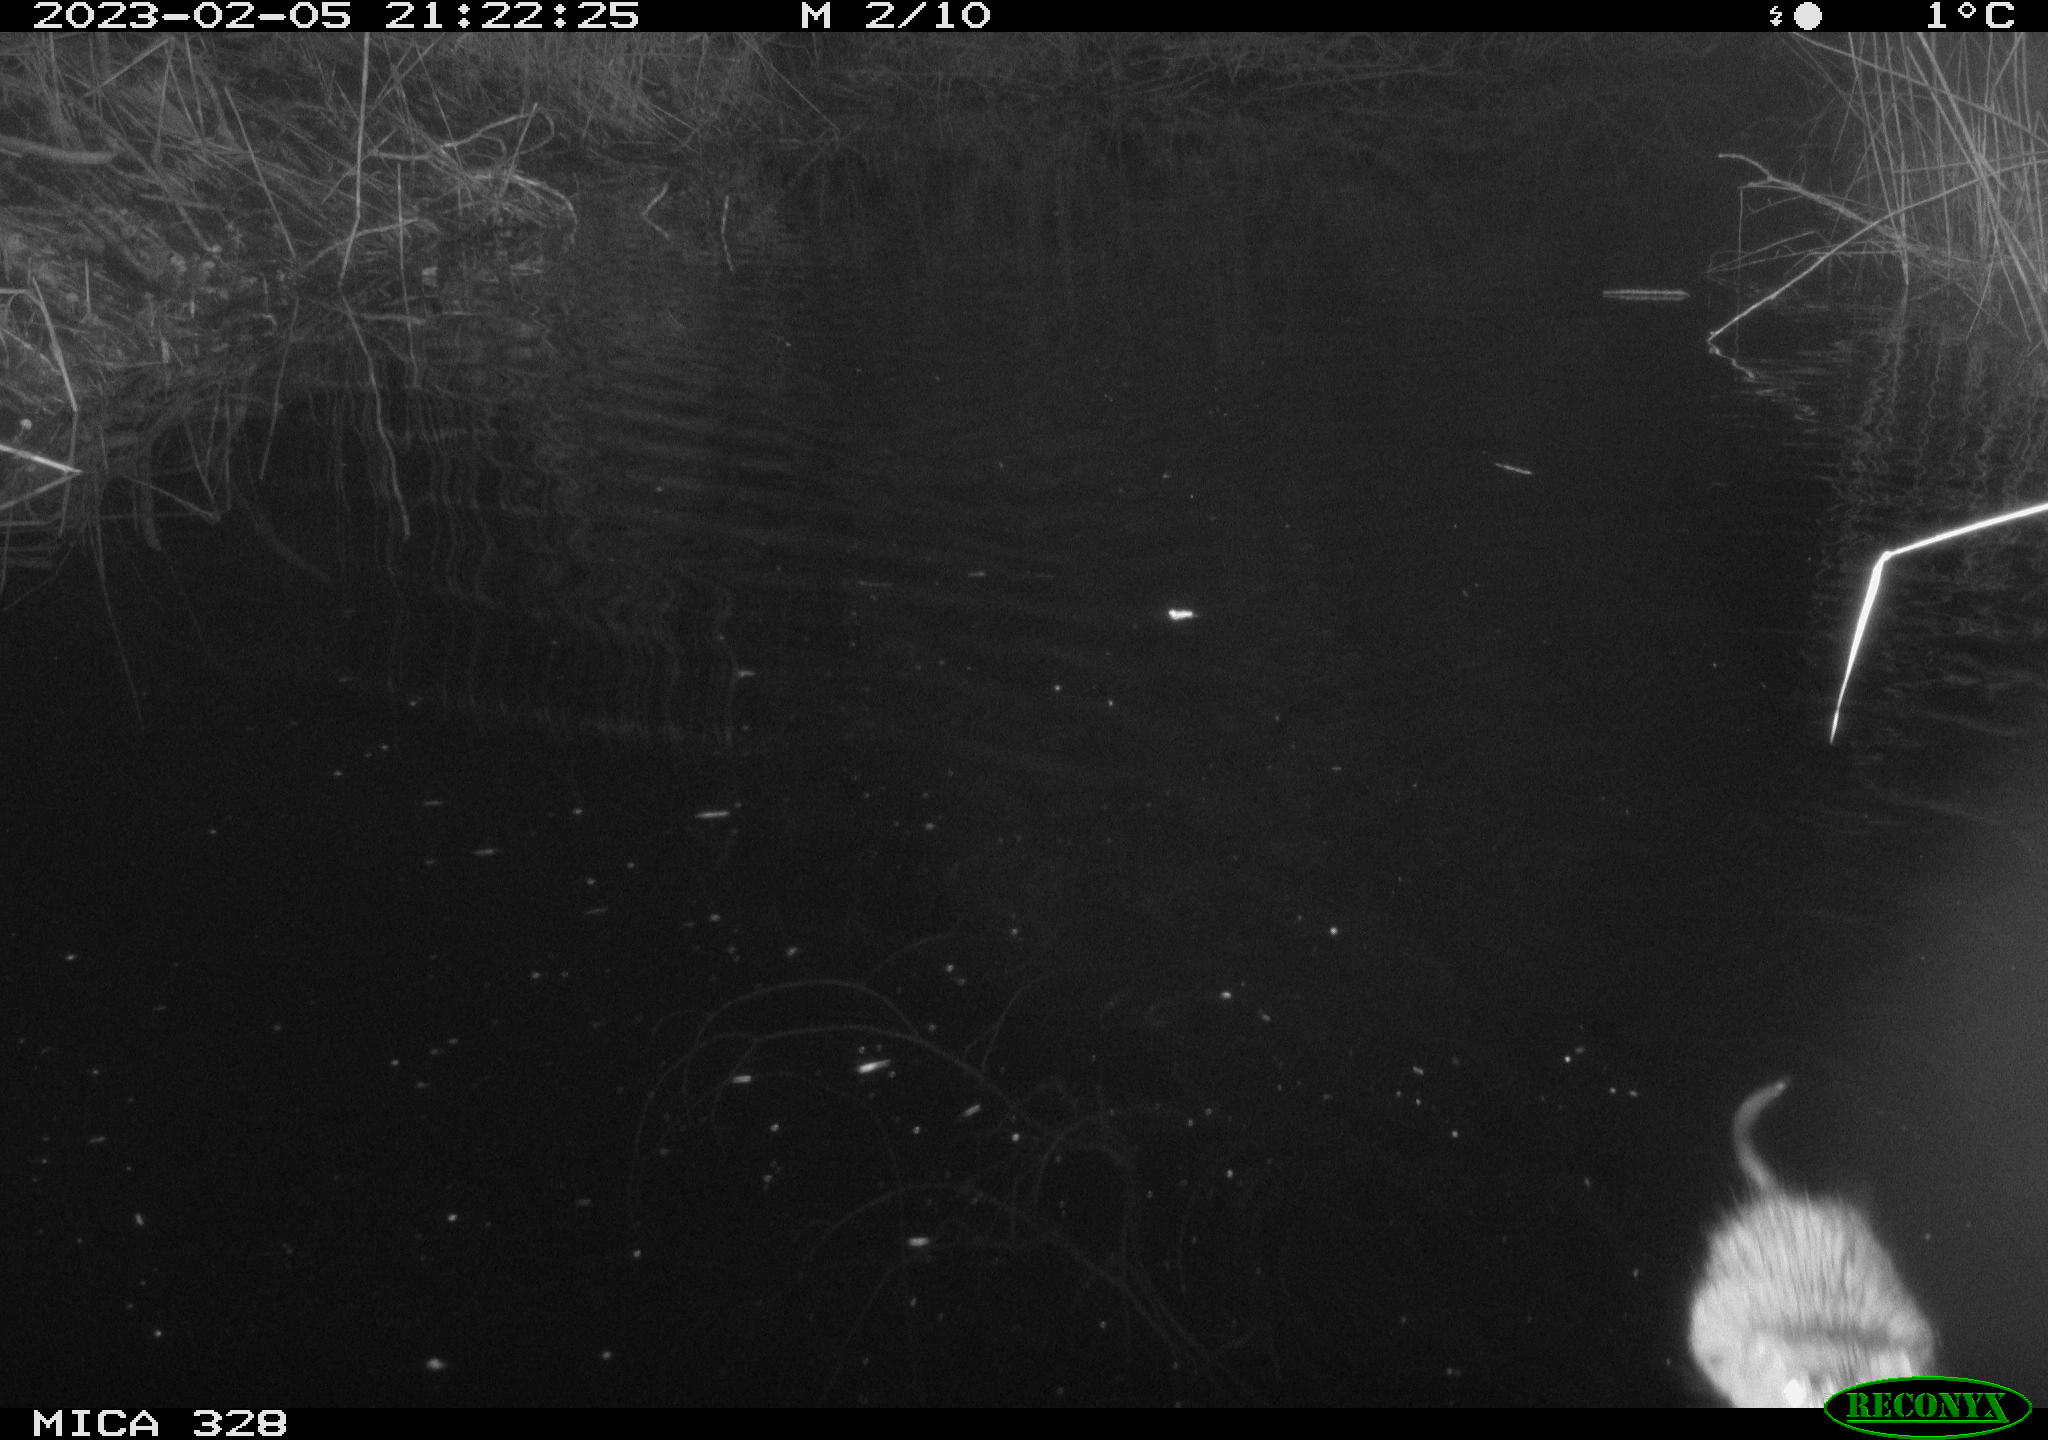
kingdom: Animalia
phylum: Chordata
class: Mammalia
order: Rodentia
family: Cricetidae
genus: Ondatra
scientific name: Ondatra zibethicus
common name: Muskrat
